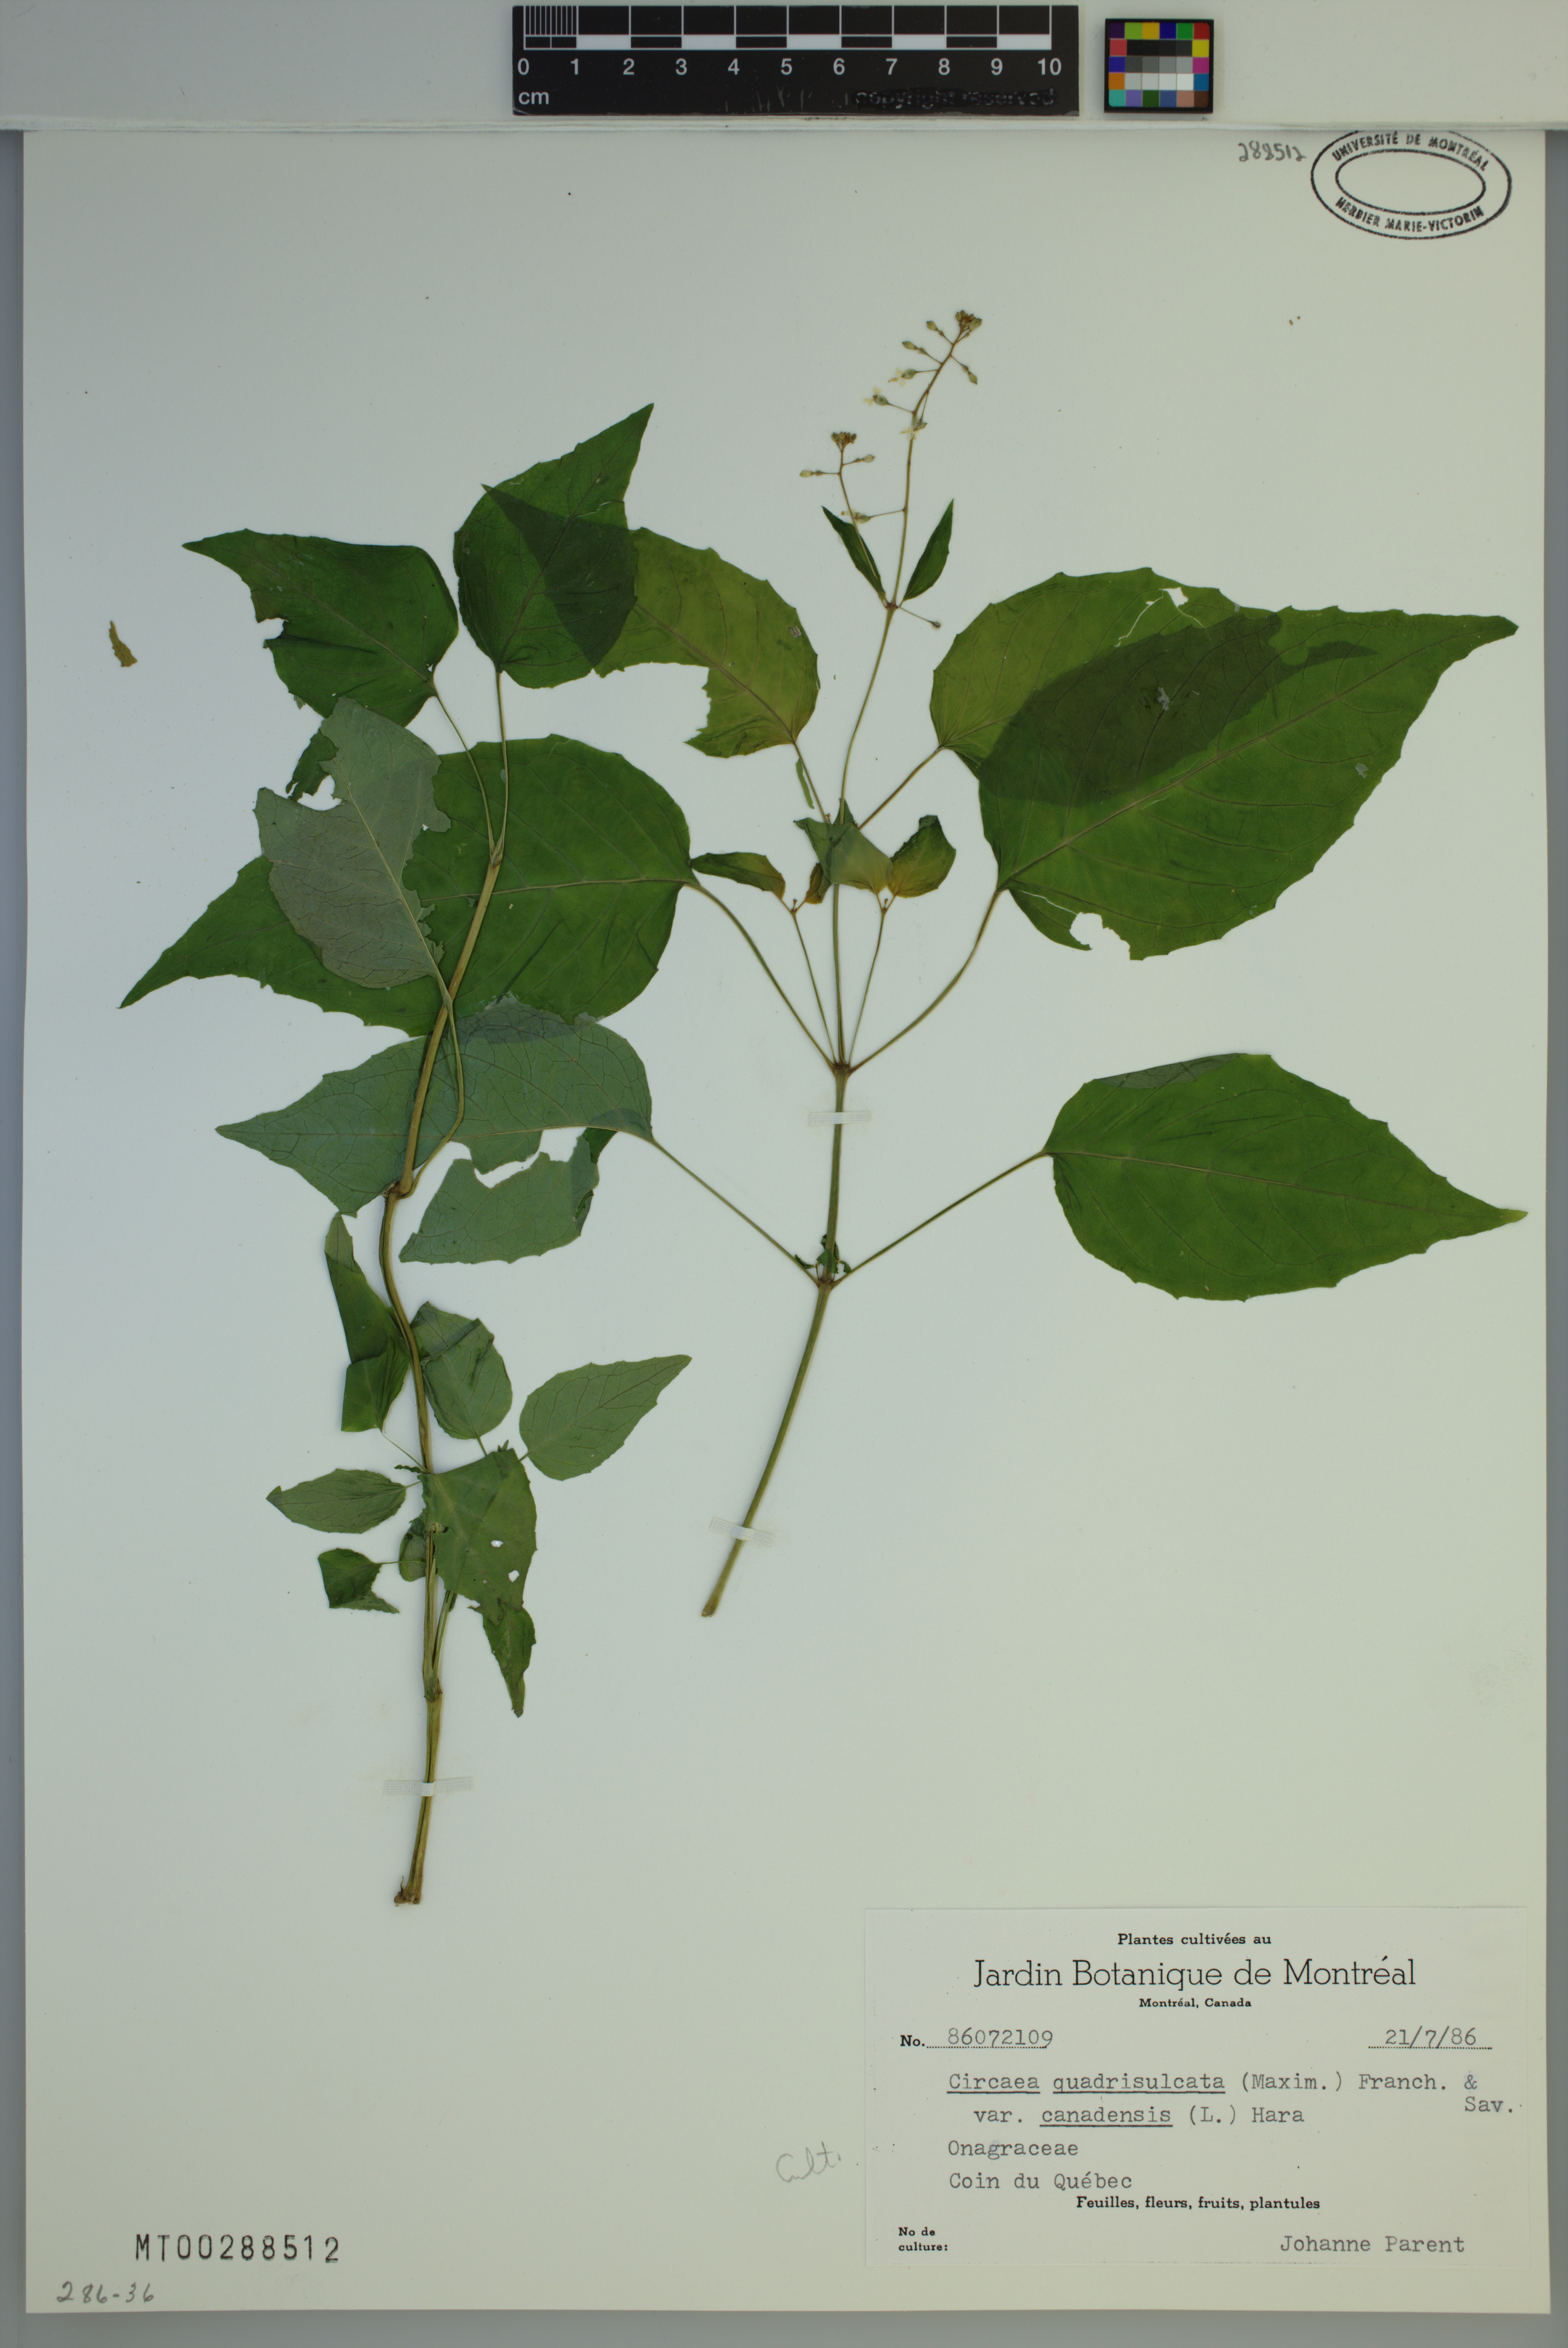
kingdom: Plantae
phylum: Tracheophyta
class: Magnoliopsida
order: Myrtales
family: Onagraceae
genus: Circaea
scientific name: Circaea canadensis
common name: Broad-leaved enchanter's nightshade
